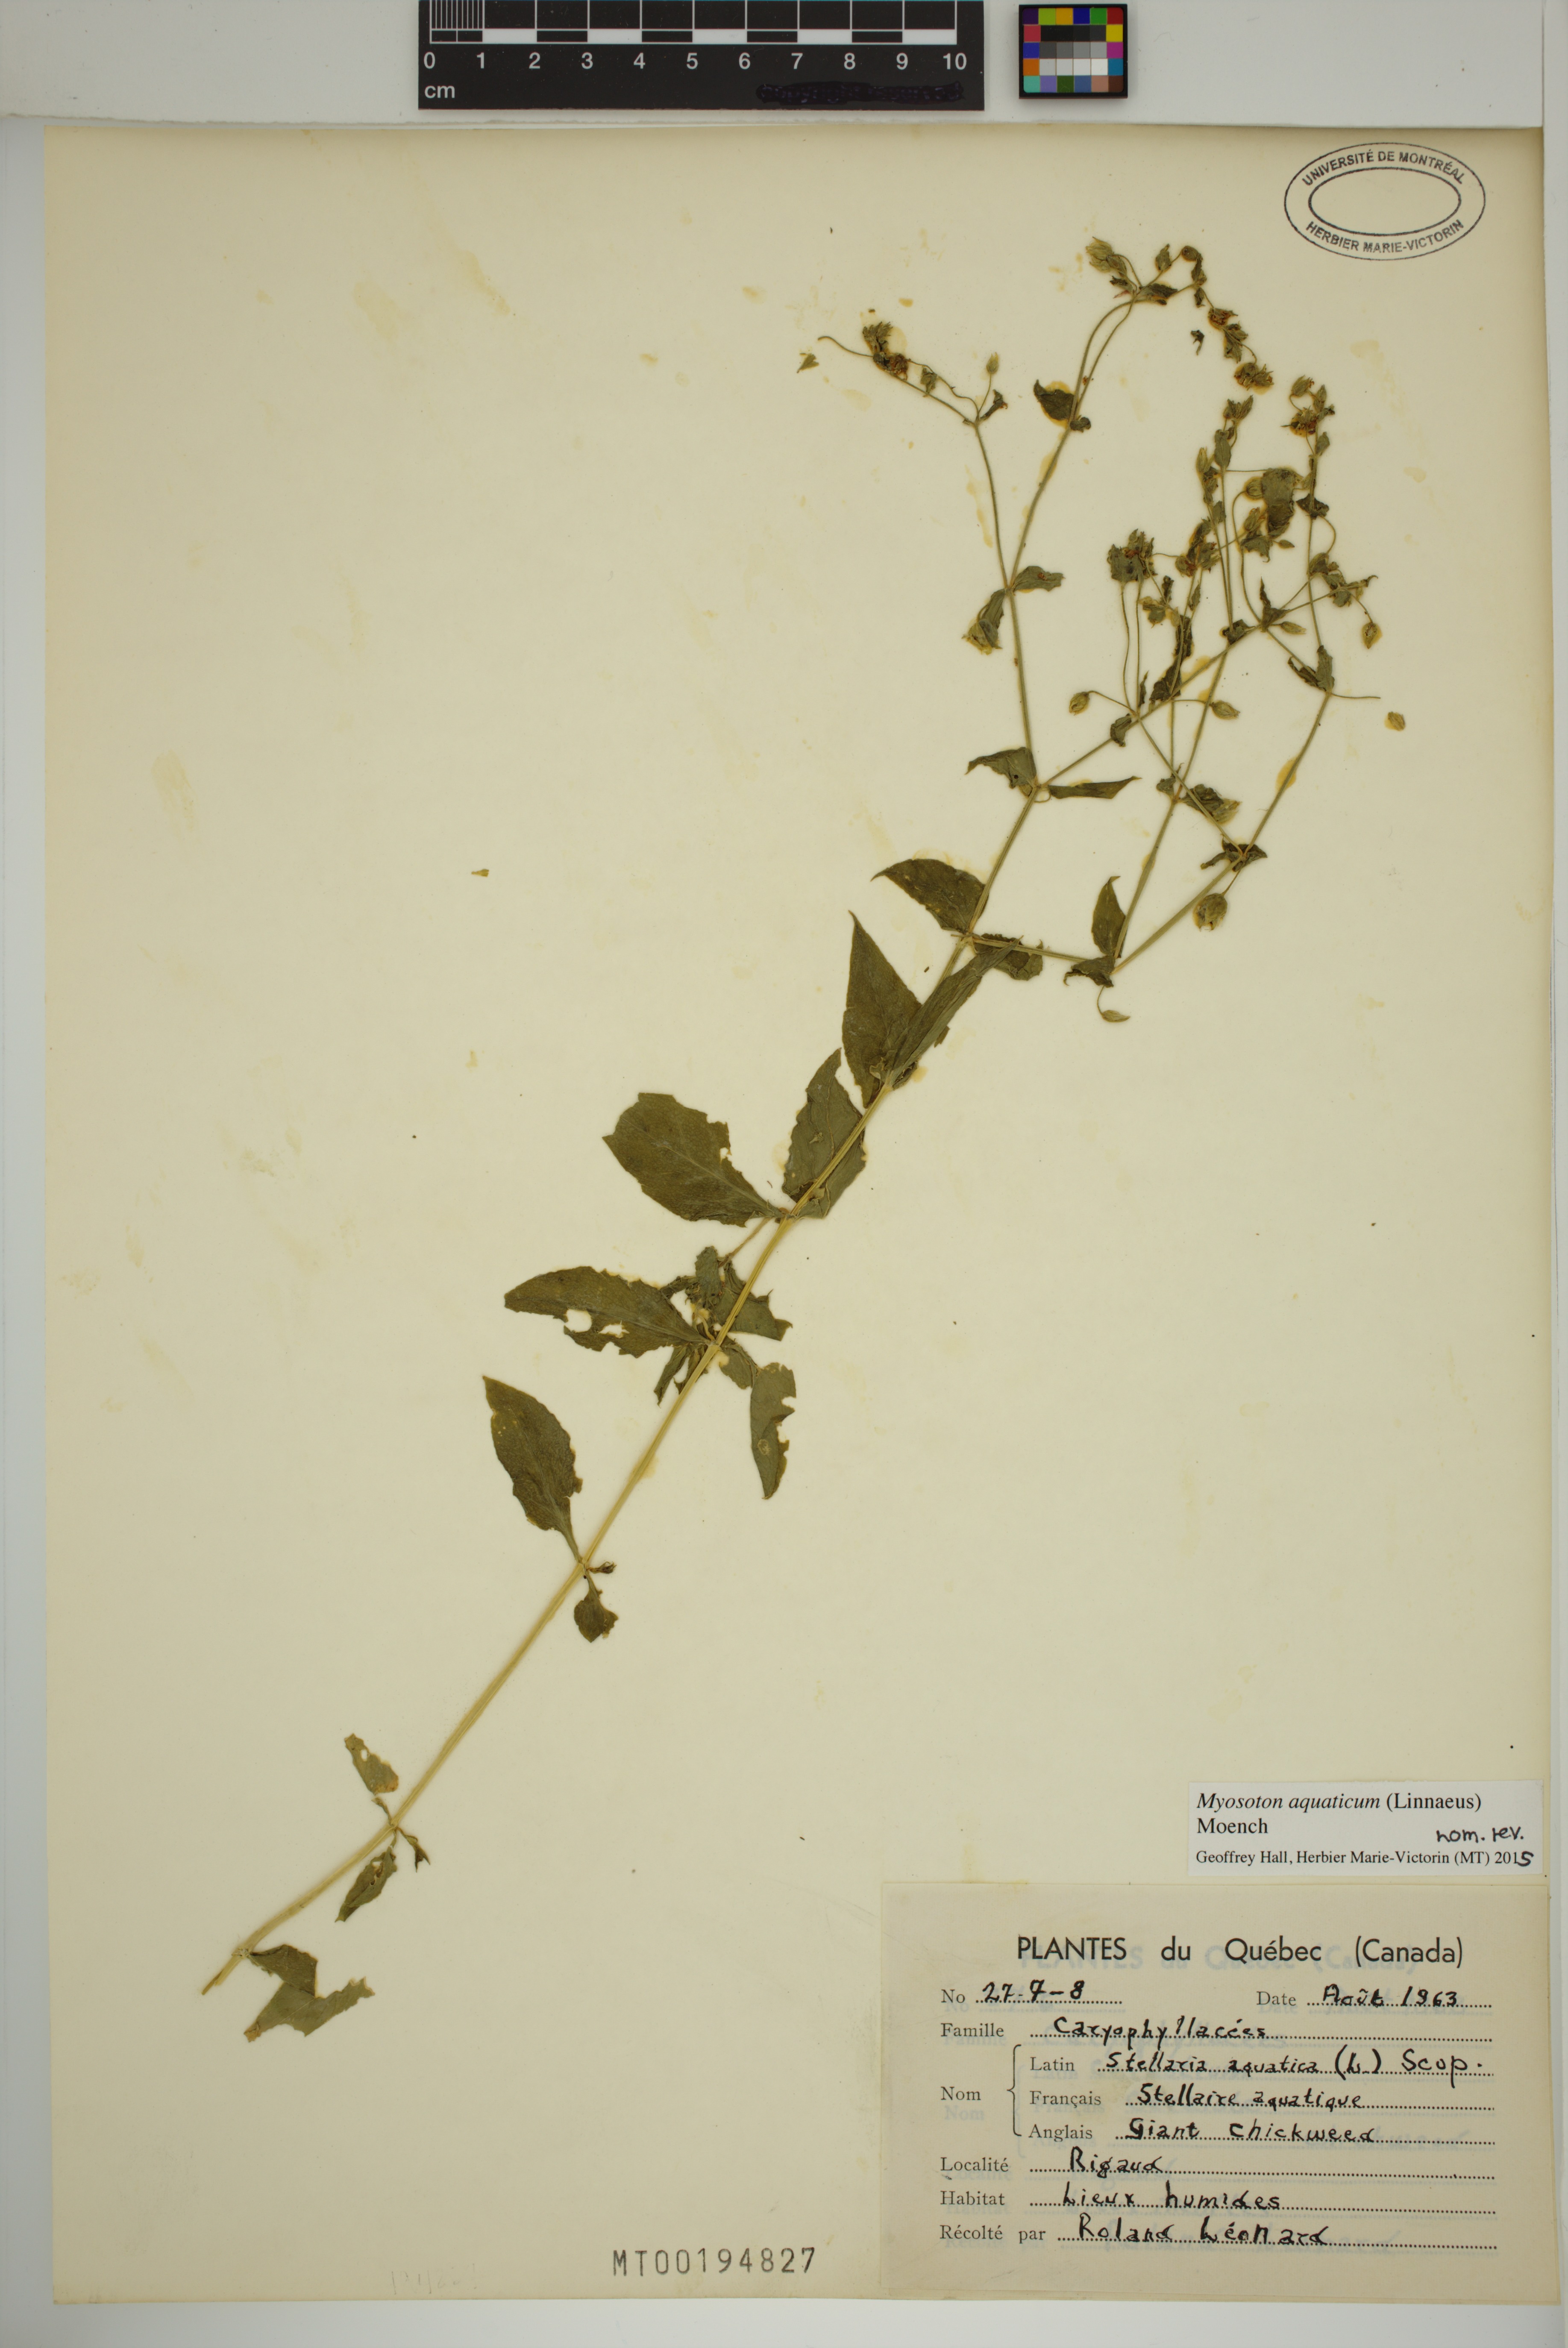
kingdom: Plantae
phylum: Tracheophyta
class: Magnoliopsida
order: Caryophyllales
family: Caryophyllaceae
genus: Stellaria
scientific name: Stellaria aquatica
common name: Water chickweed
